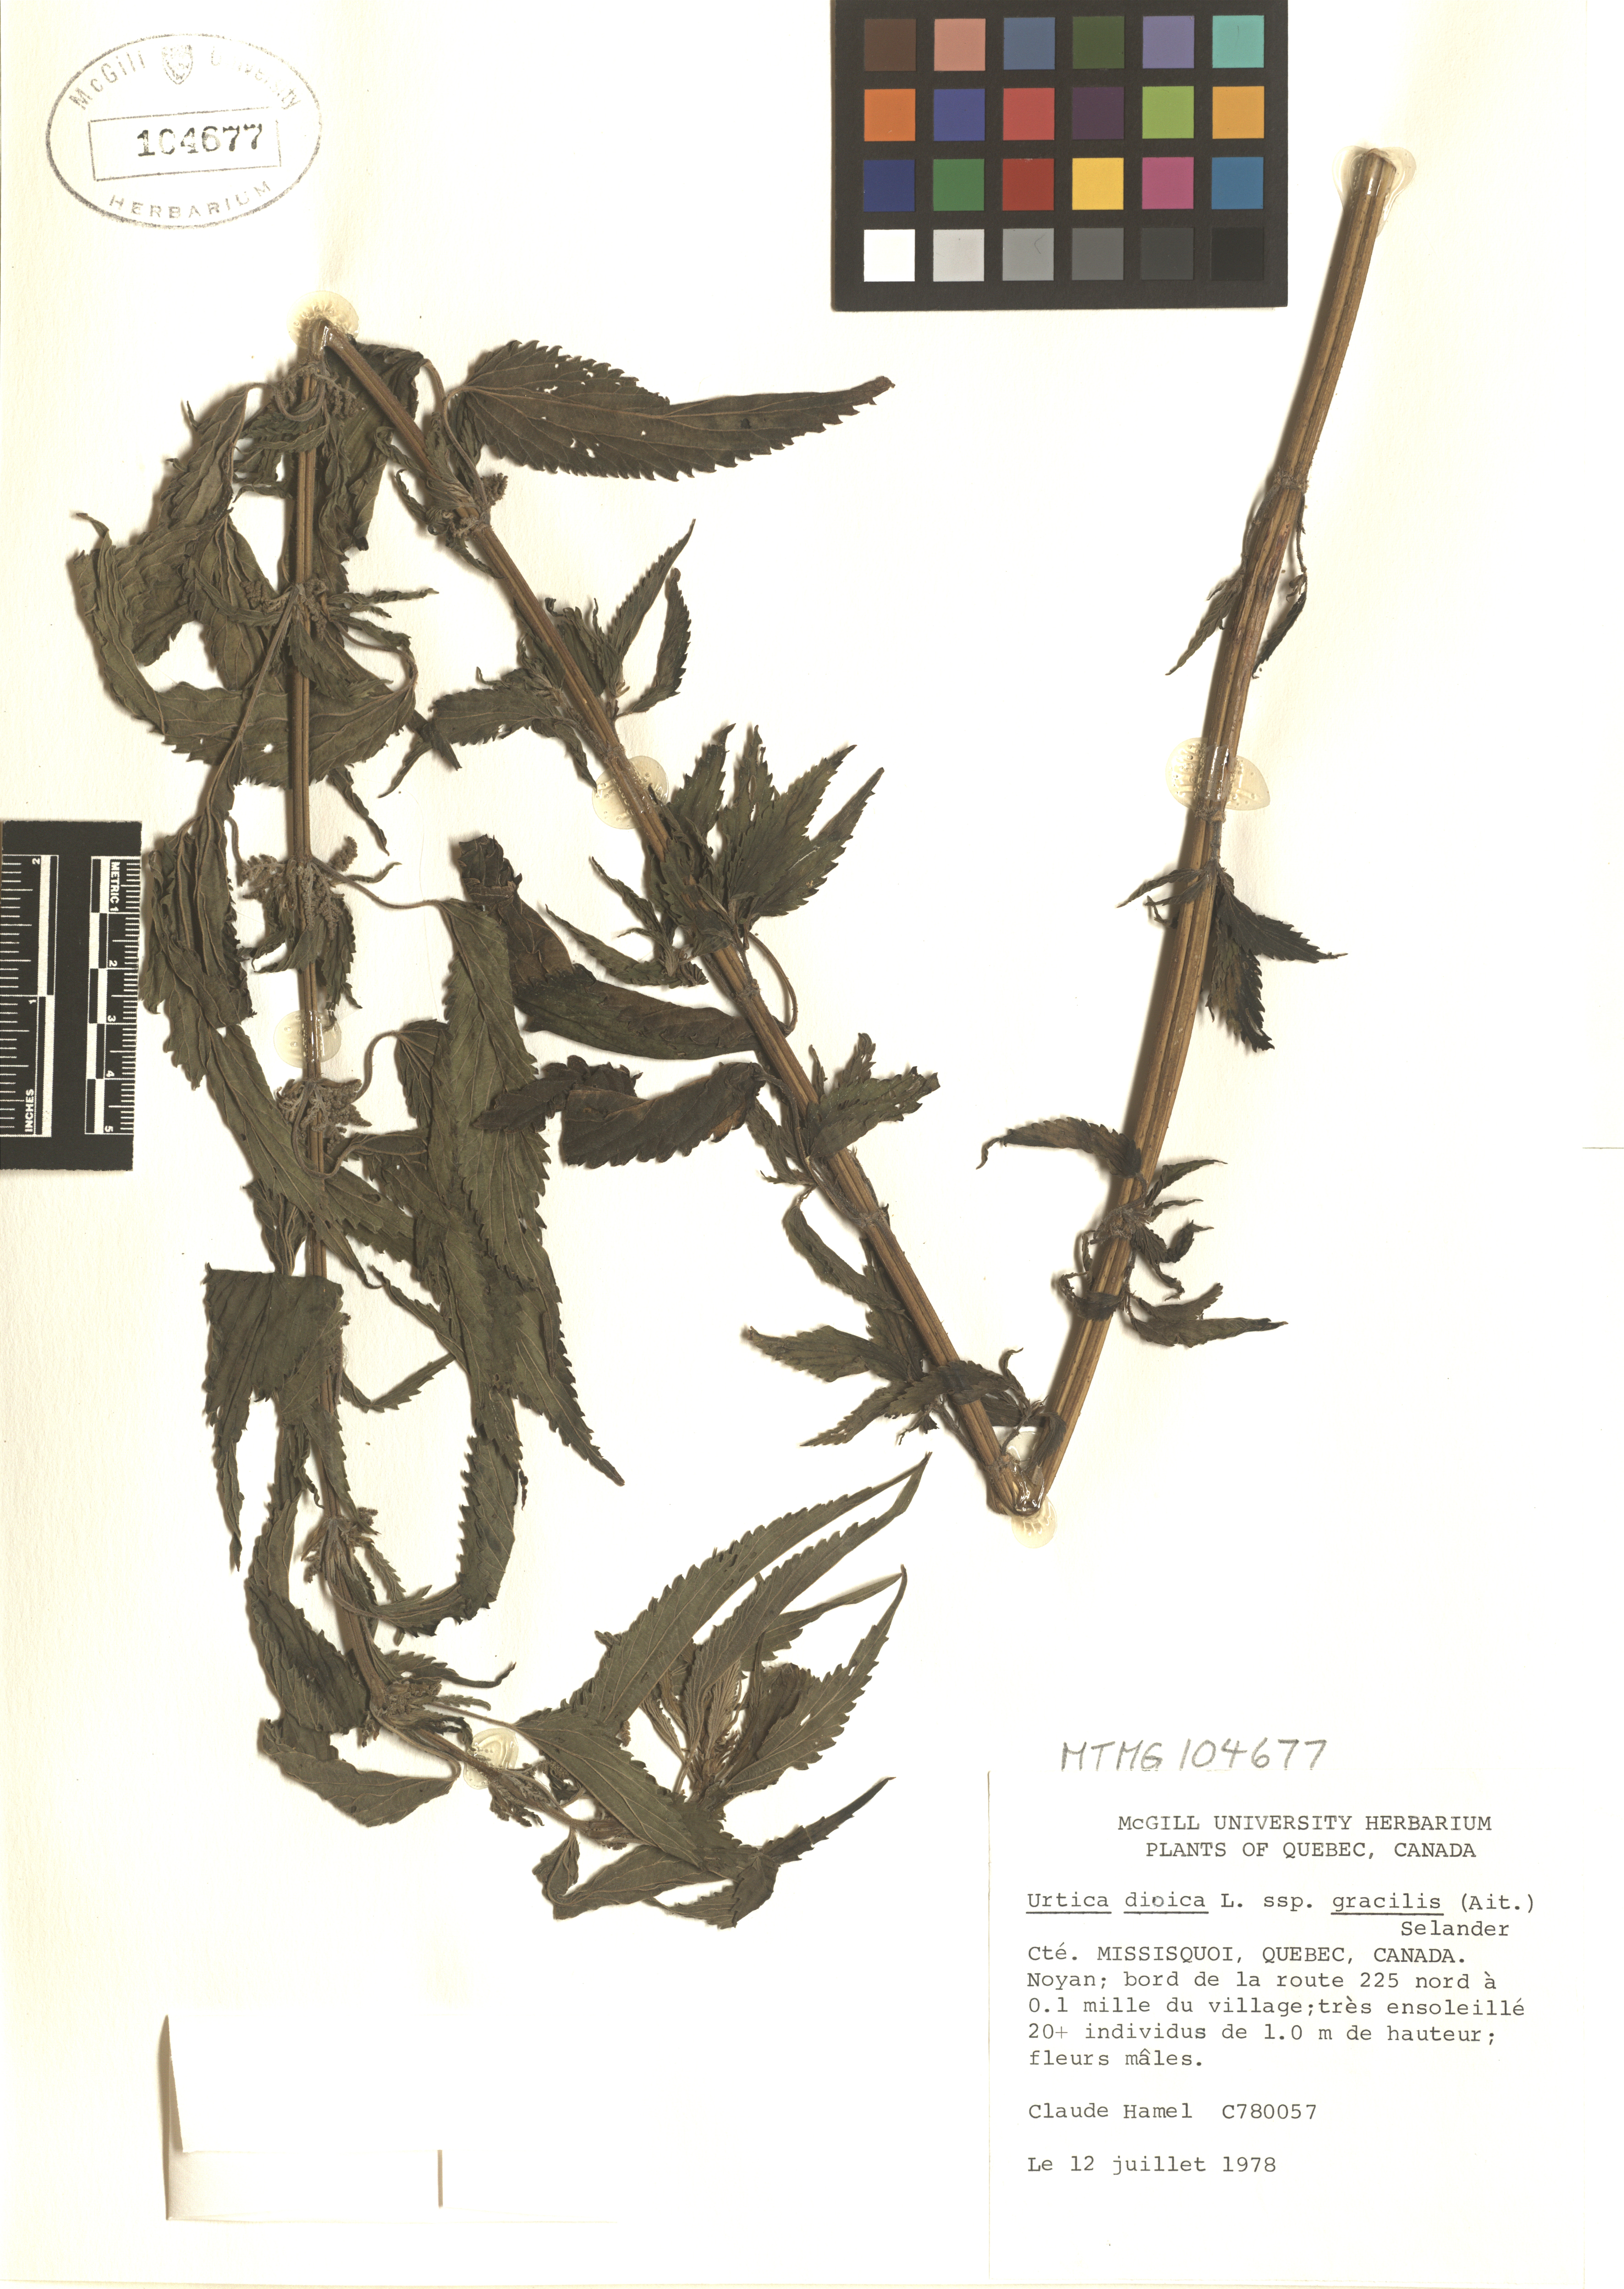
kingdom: Plantae
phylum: Tracheophyta
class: Magnoliopsida
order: Rosales
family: Urticaceae
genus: Urtica
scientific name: Urtica gracilis
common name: Slender stinging nettle
